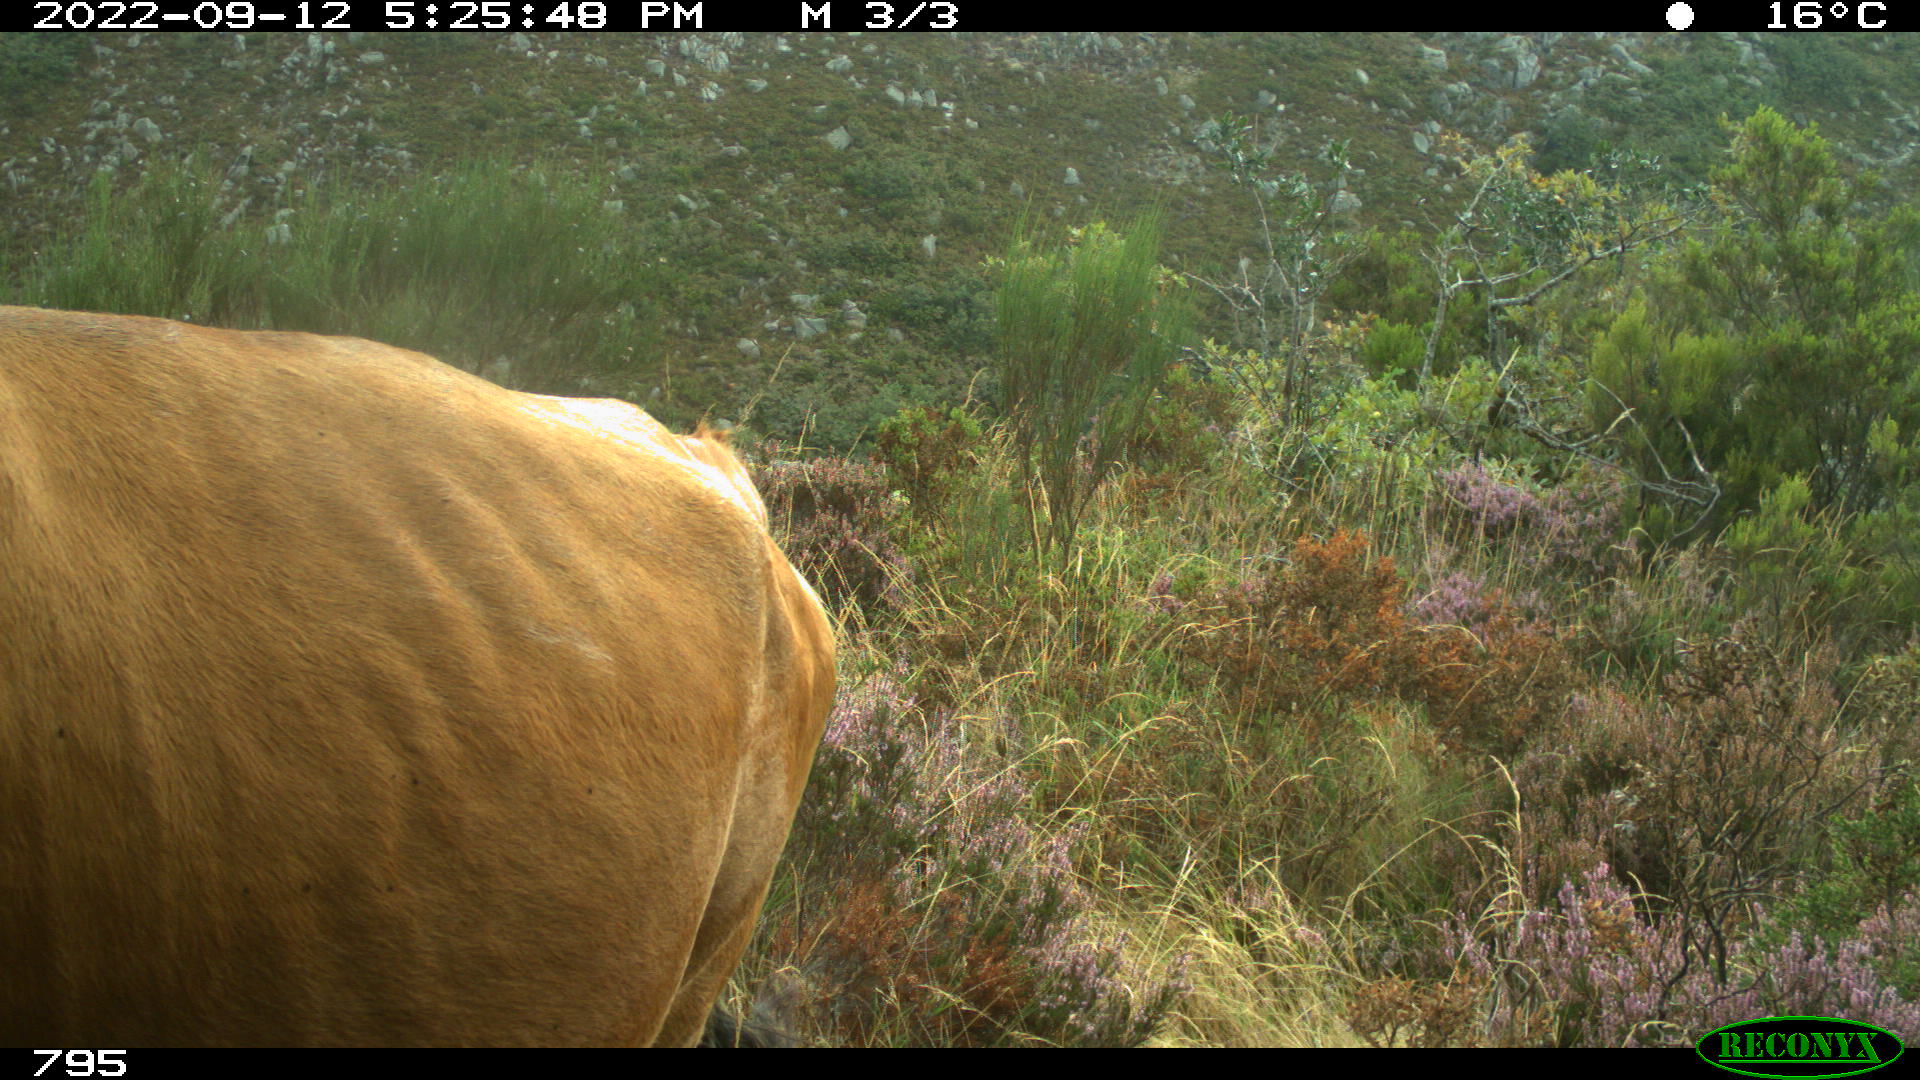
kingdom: Animalia
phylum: Chordata
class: Mammalia
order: Artiodactyla
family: Bovidae
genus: Bos
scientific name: Bos taurus
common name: Domesticated cattle
